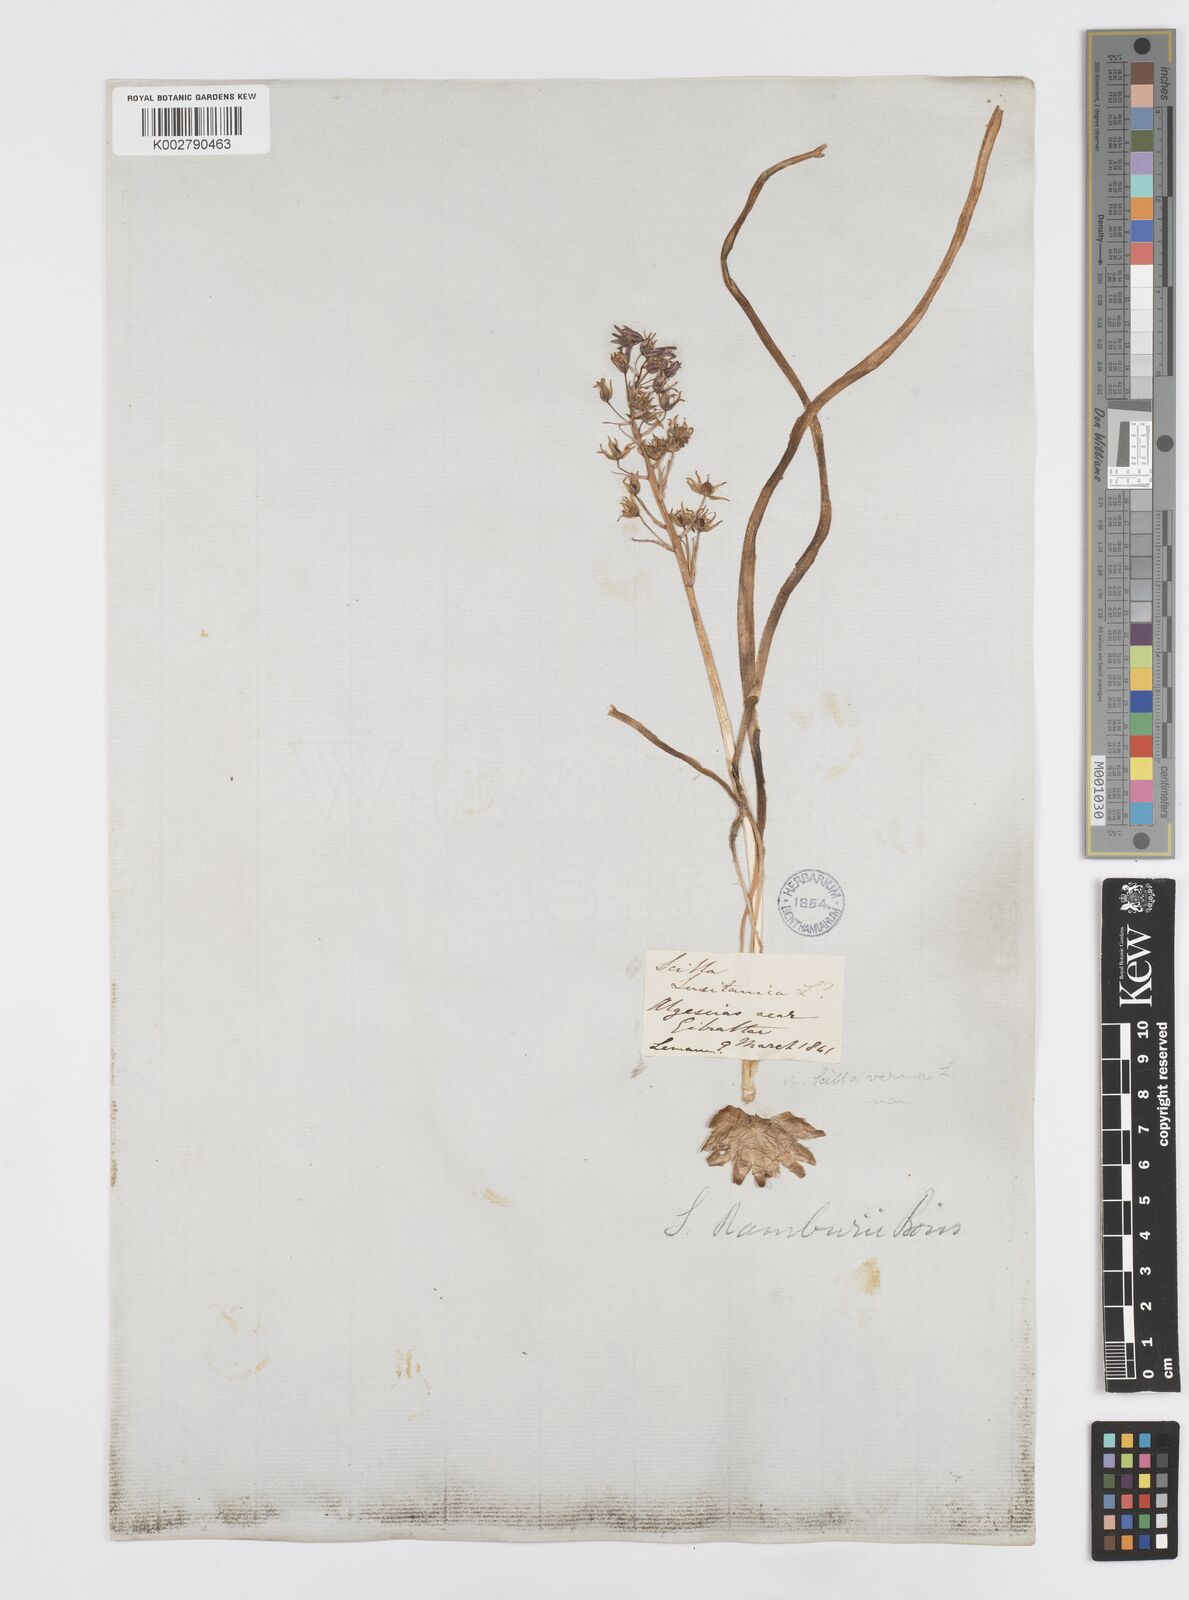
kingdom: Plantae
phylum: Tracheophyta
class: Liliopsida
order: Asparagales
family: Asparagaceae
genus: Scilla
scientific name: Scilla verna
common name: Spring squill
